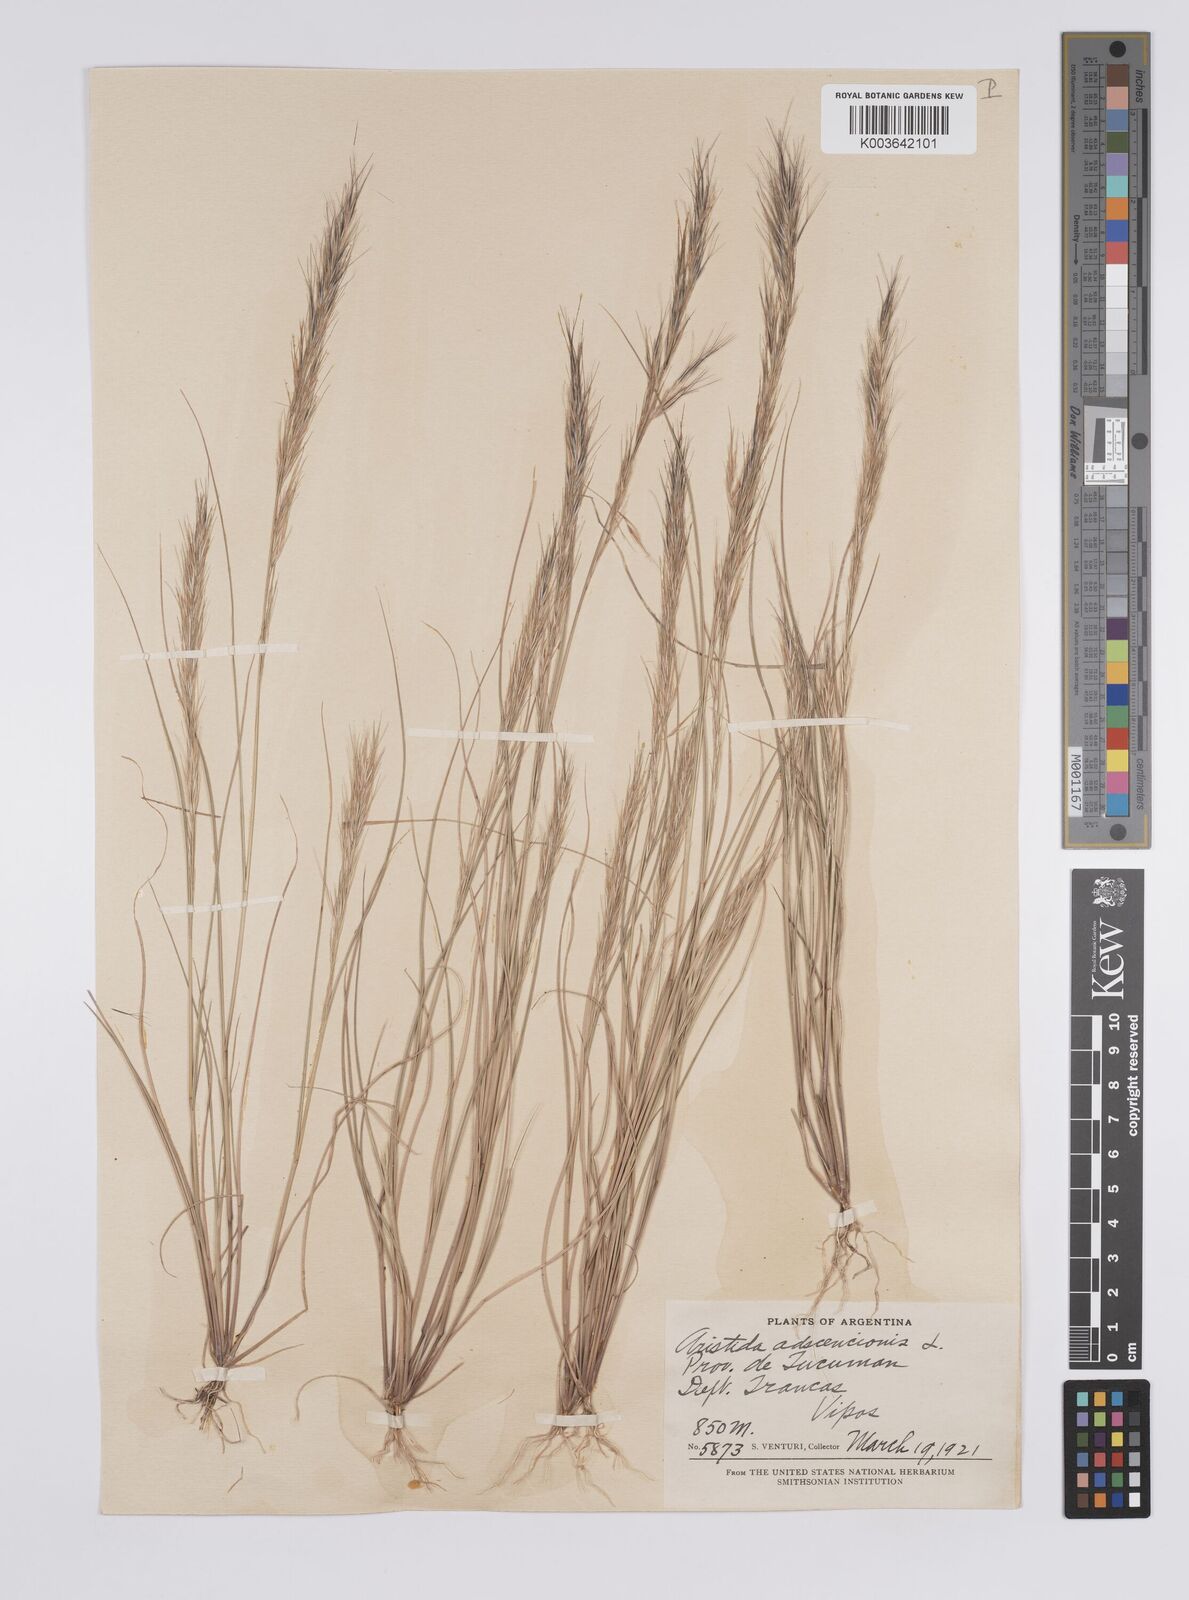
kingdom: Plantae
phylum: Tracheophyta
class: Liliopsida
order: Poales
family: Poaceae
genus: Aristida
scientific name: Aristida adscensionis
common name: Sixweeks threeawn
